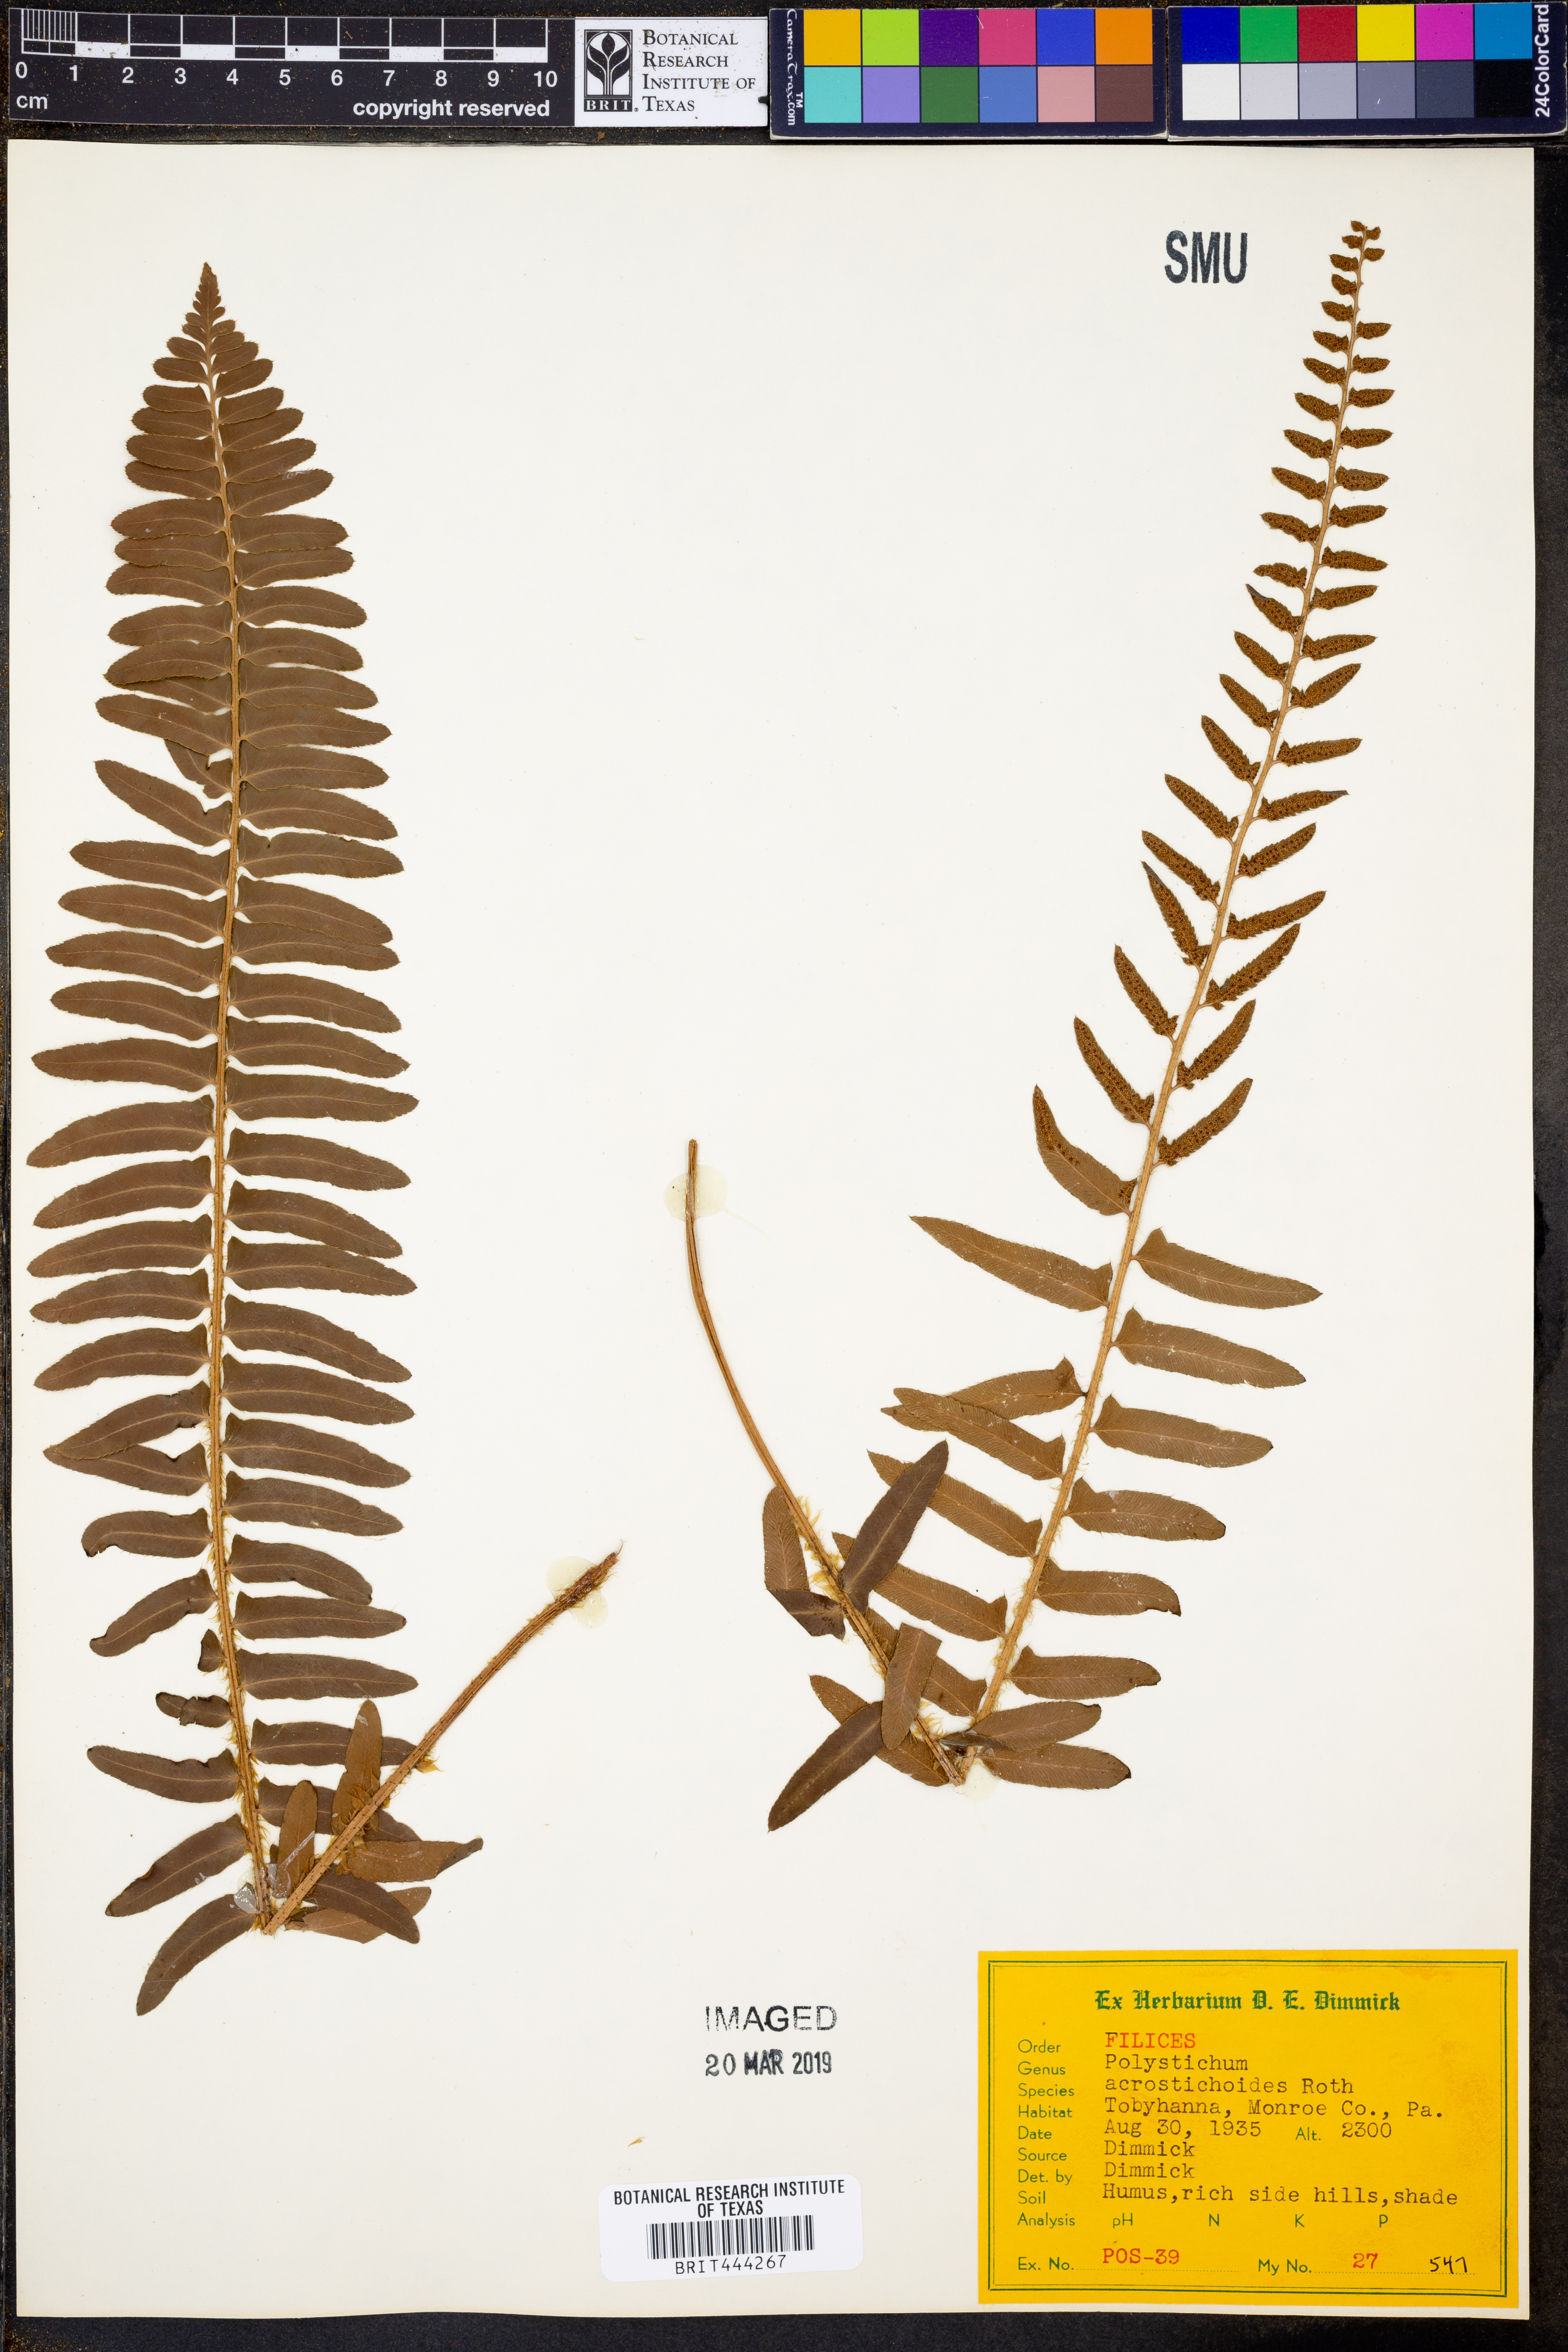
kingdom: Plantae
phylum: Tracheophyta
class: Polypodiopsida
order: Polypodiales
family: Dryopteridaceae
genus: Polystichum
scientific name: Polystichum acrostichoides
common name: Christmas fern
